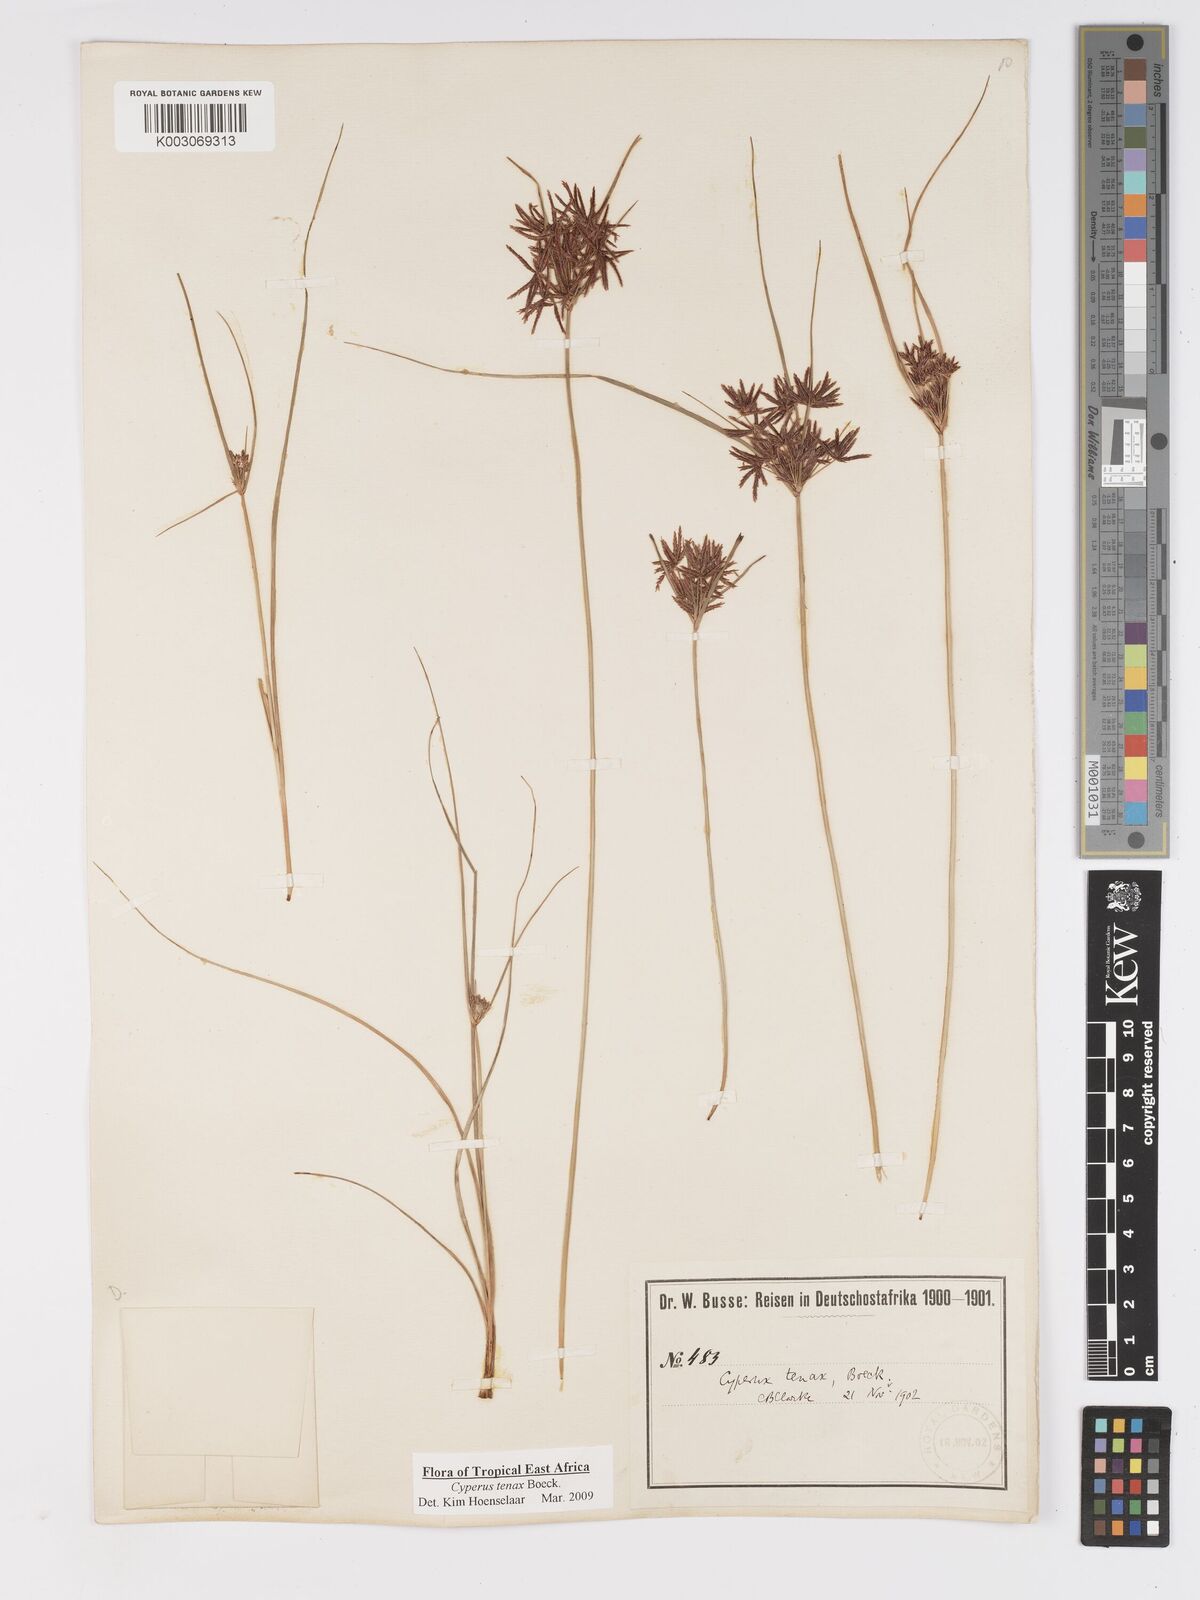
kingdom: Plantae
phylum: Tracheophyta
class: Liliopsida
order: Poales
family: Cyperaceae
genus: Cyperus
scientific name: Cyperus tenax
